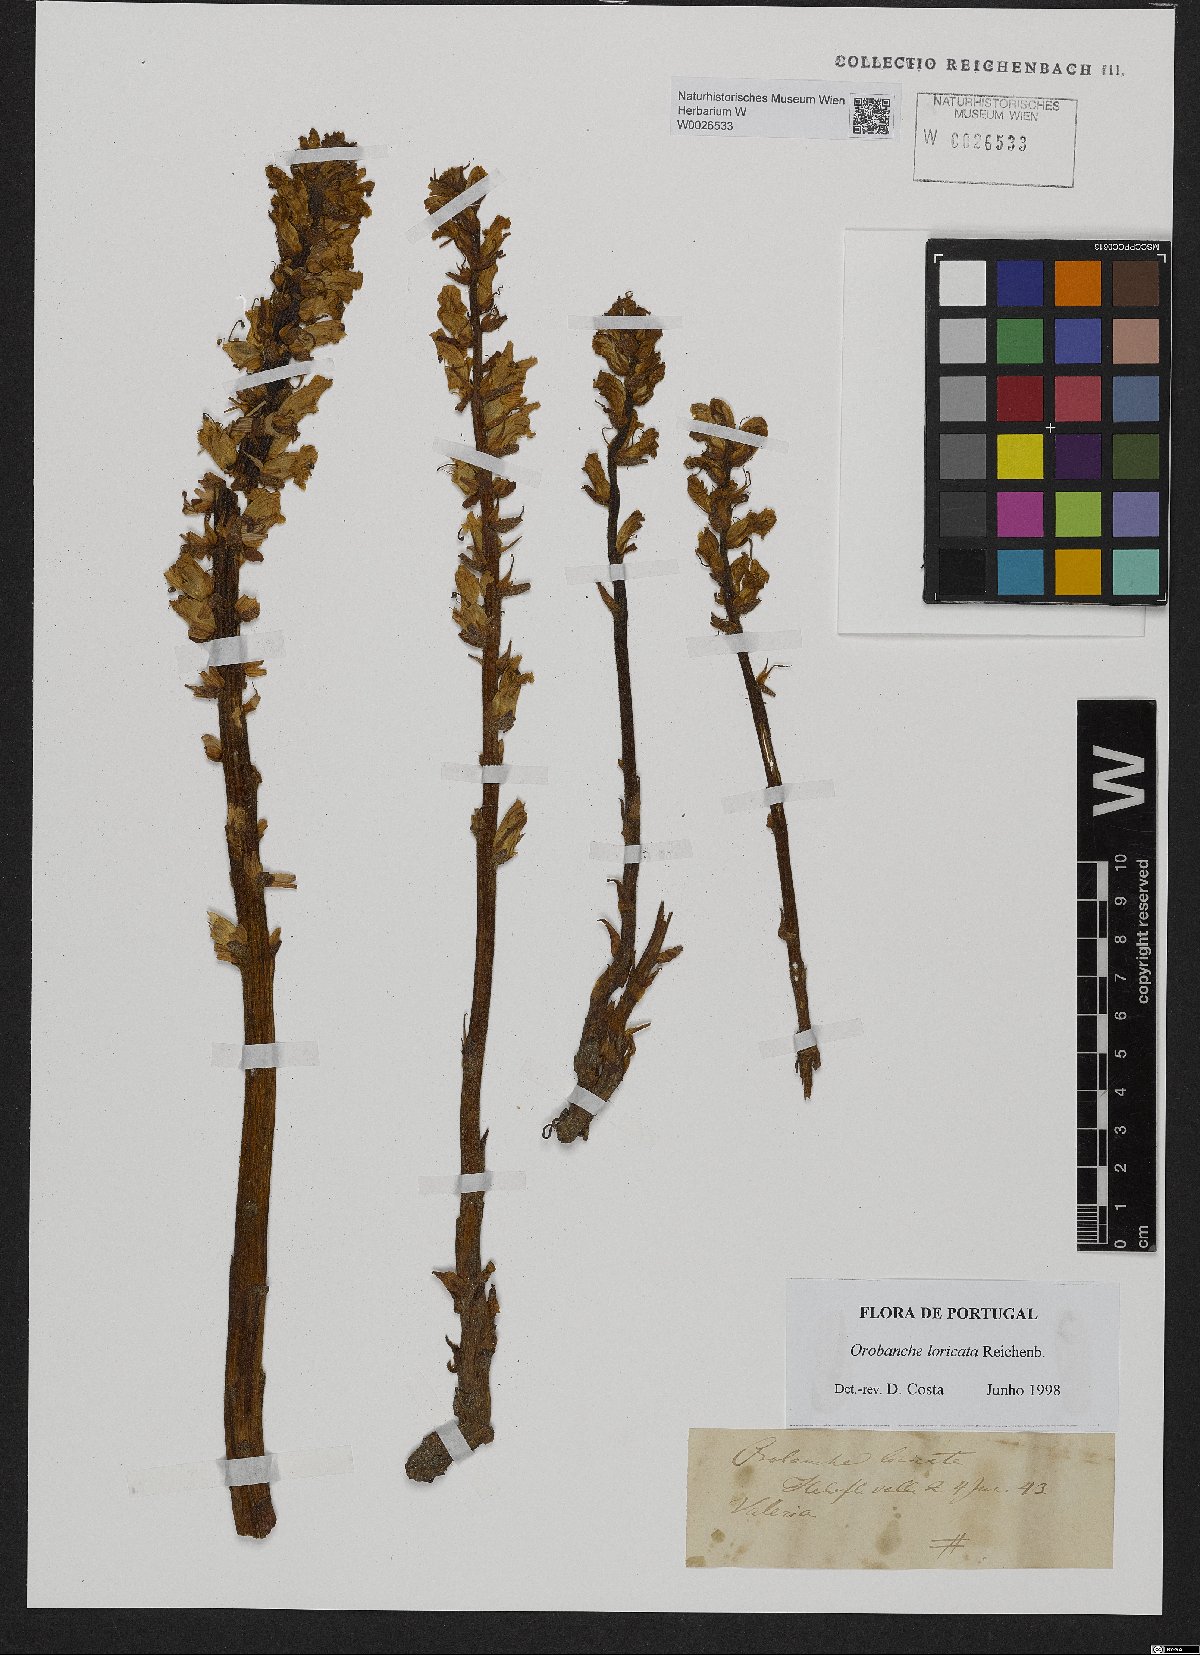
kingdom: Plantae
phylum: Tracheophyta
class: Magnoliopsida
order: Lamiales
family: Orobanchaceae
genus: Orobanche
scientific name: Orobanche artemisiae-campestris
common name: Oxtongue broomrape
